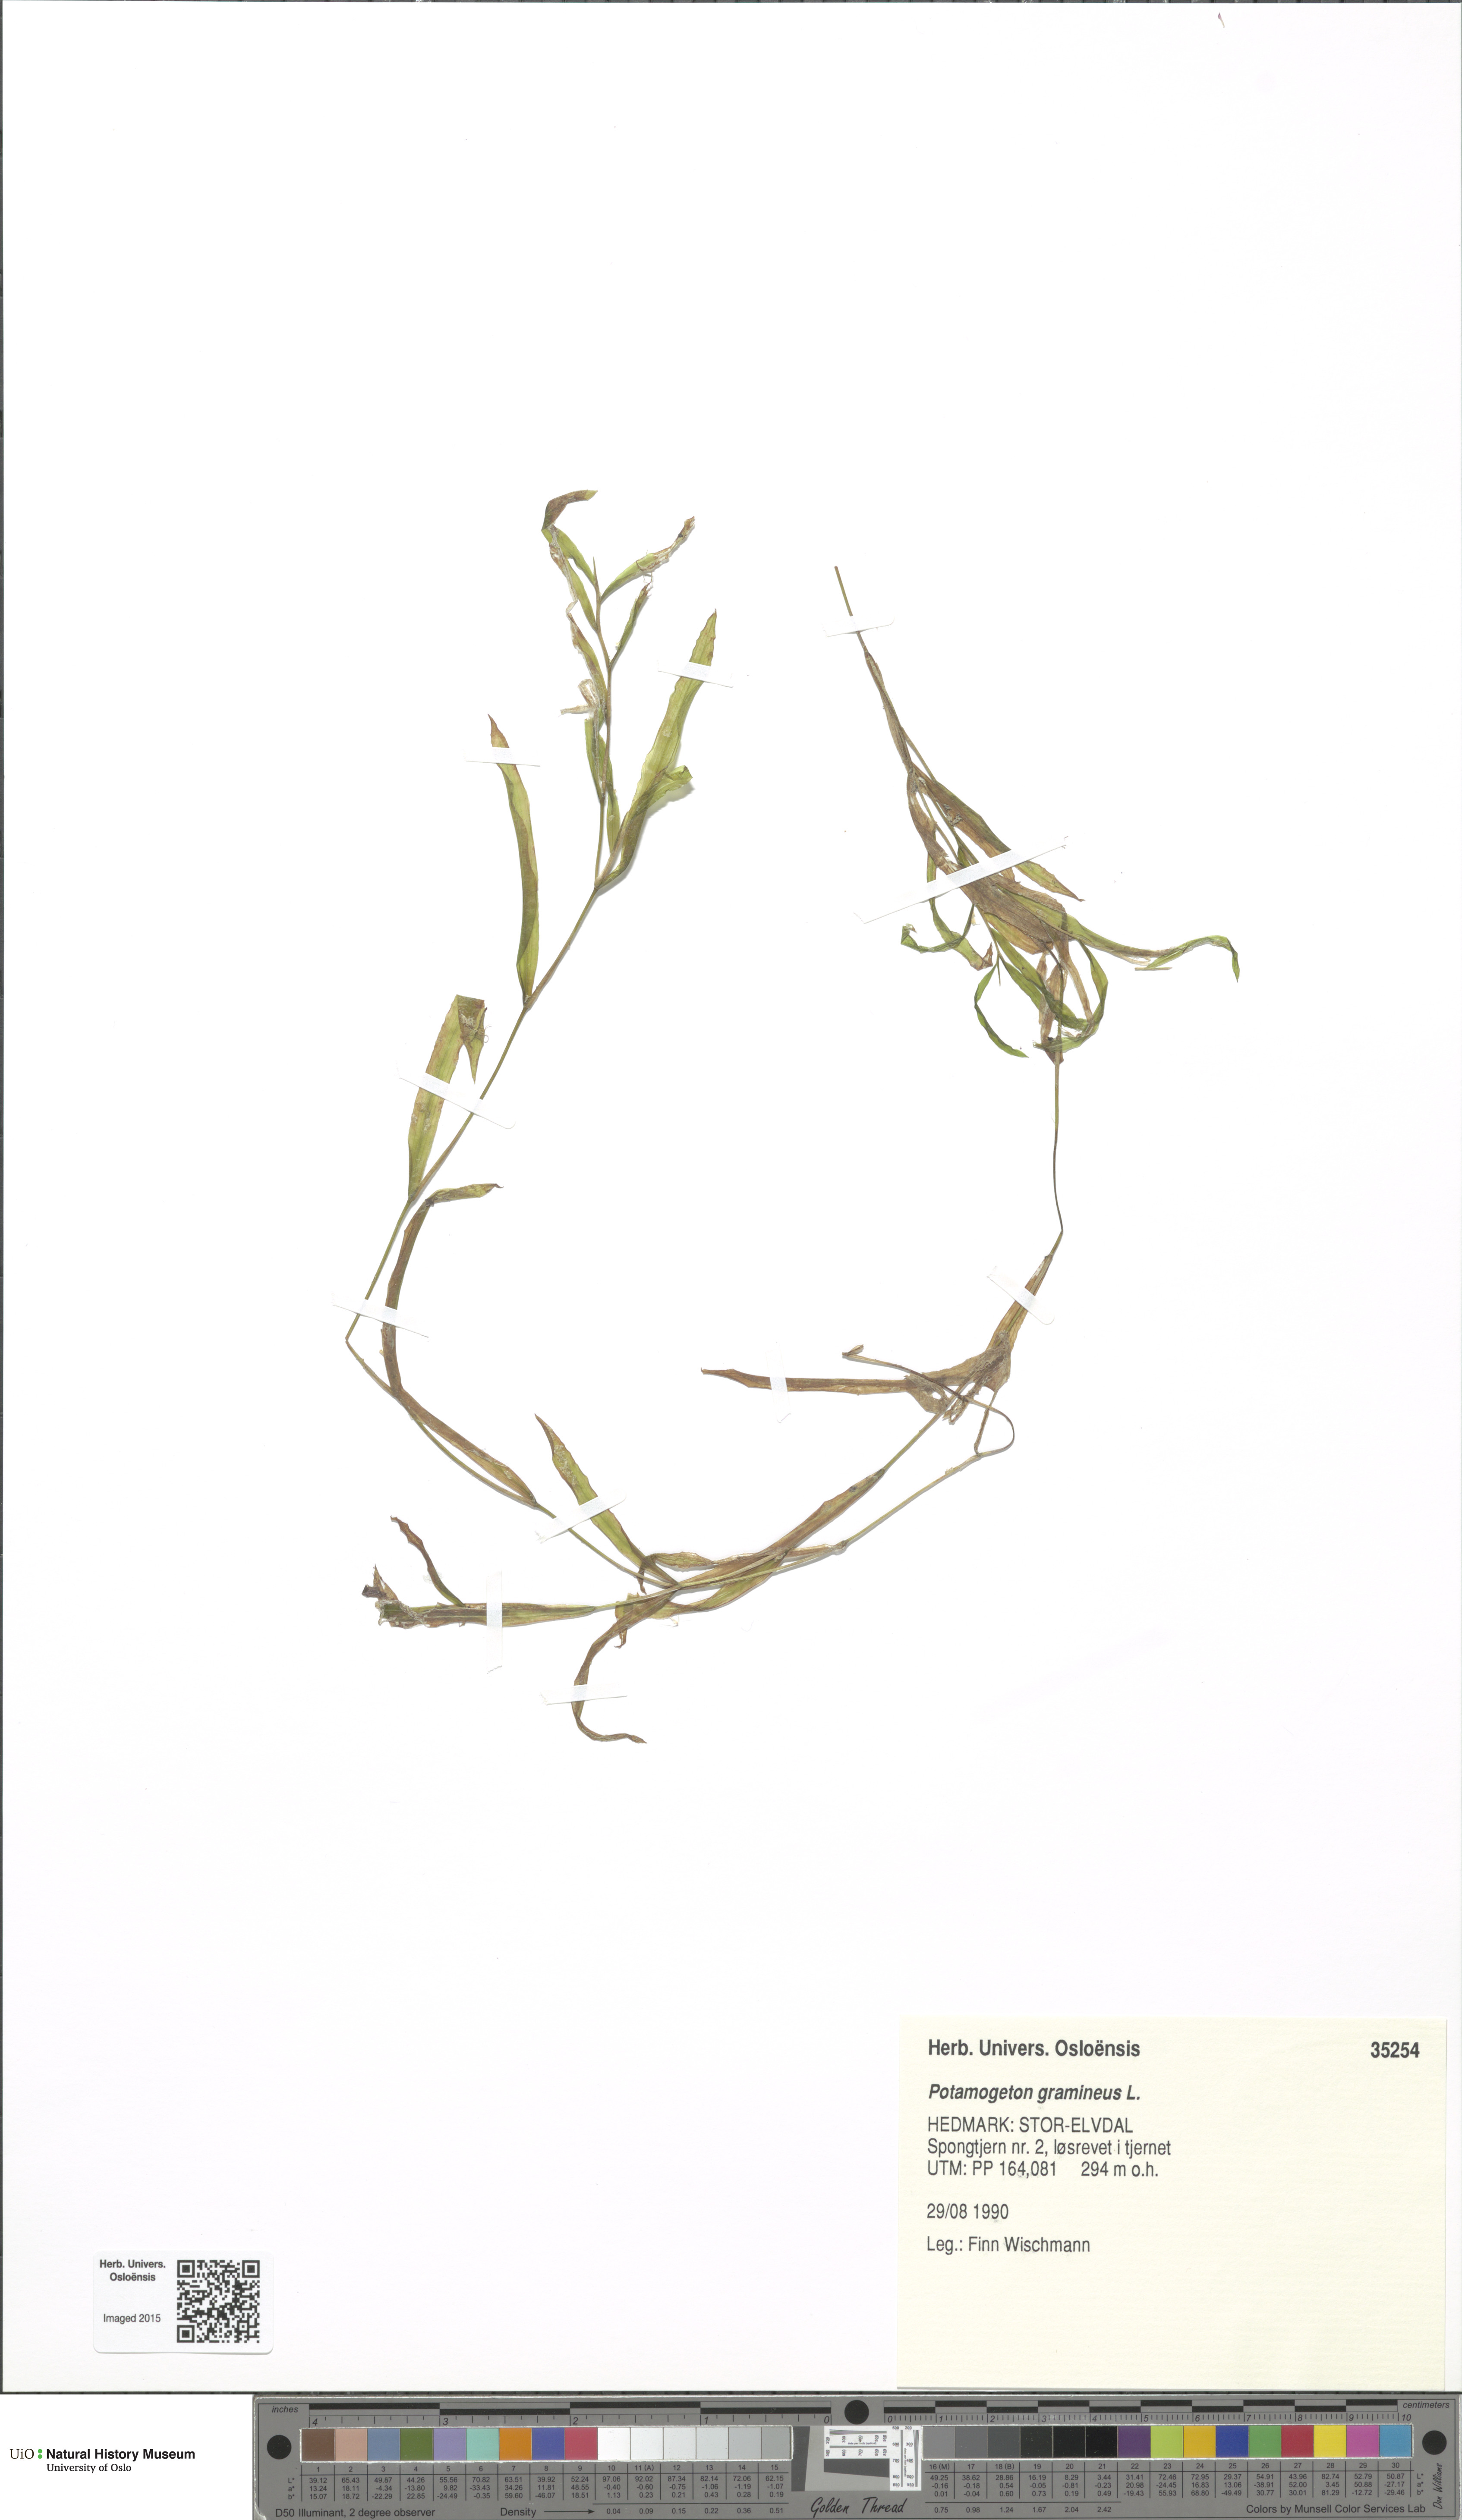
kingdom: Plantae
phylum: Tracheophyta
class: Liliopsida
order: Alismatales
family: Potamogetonaceae
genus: Potamogeton
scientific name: Potamogeton gramineus
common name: Various-leaved pondweed
